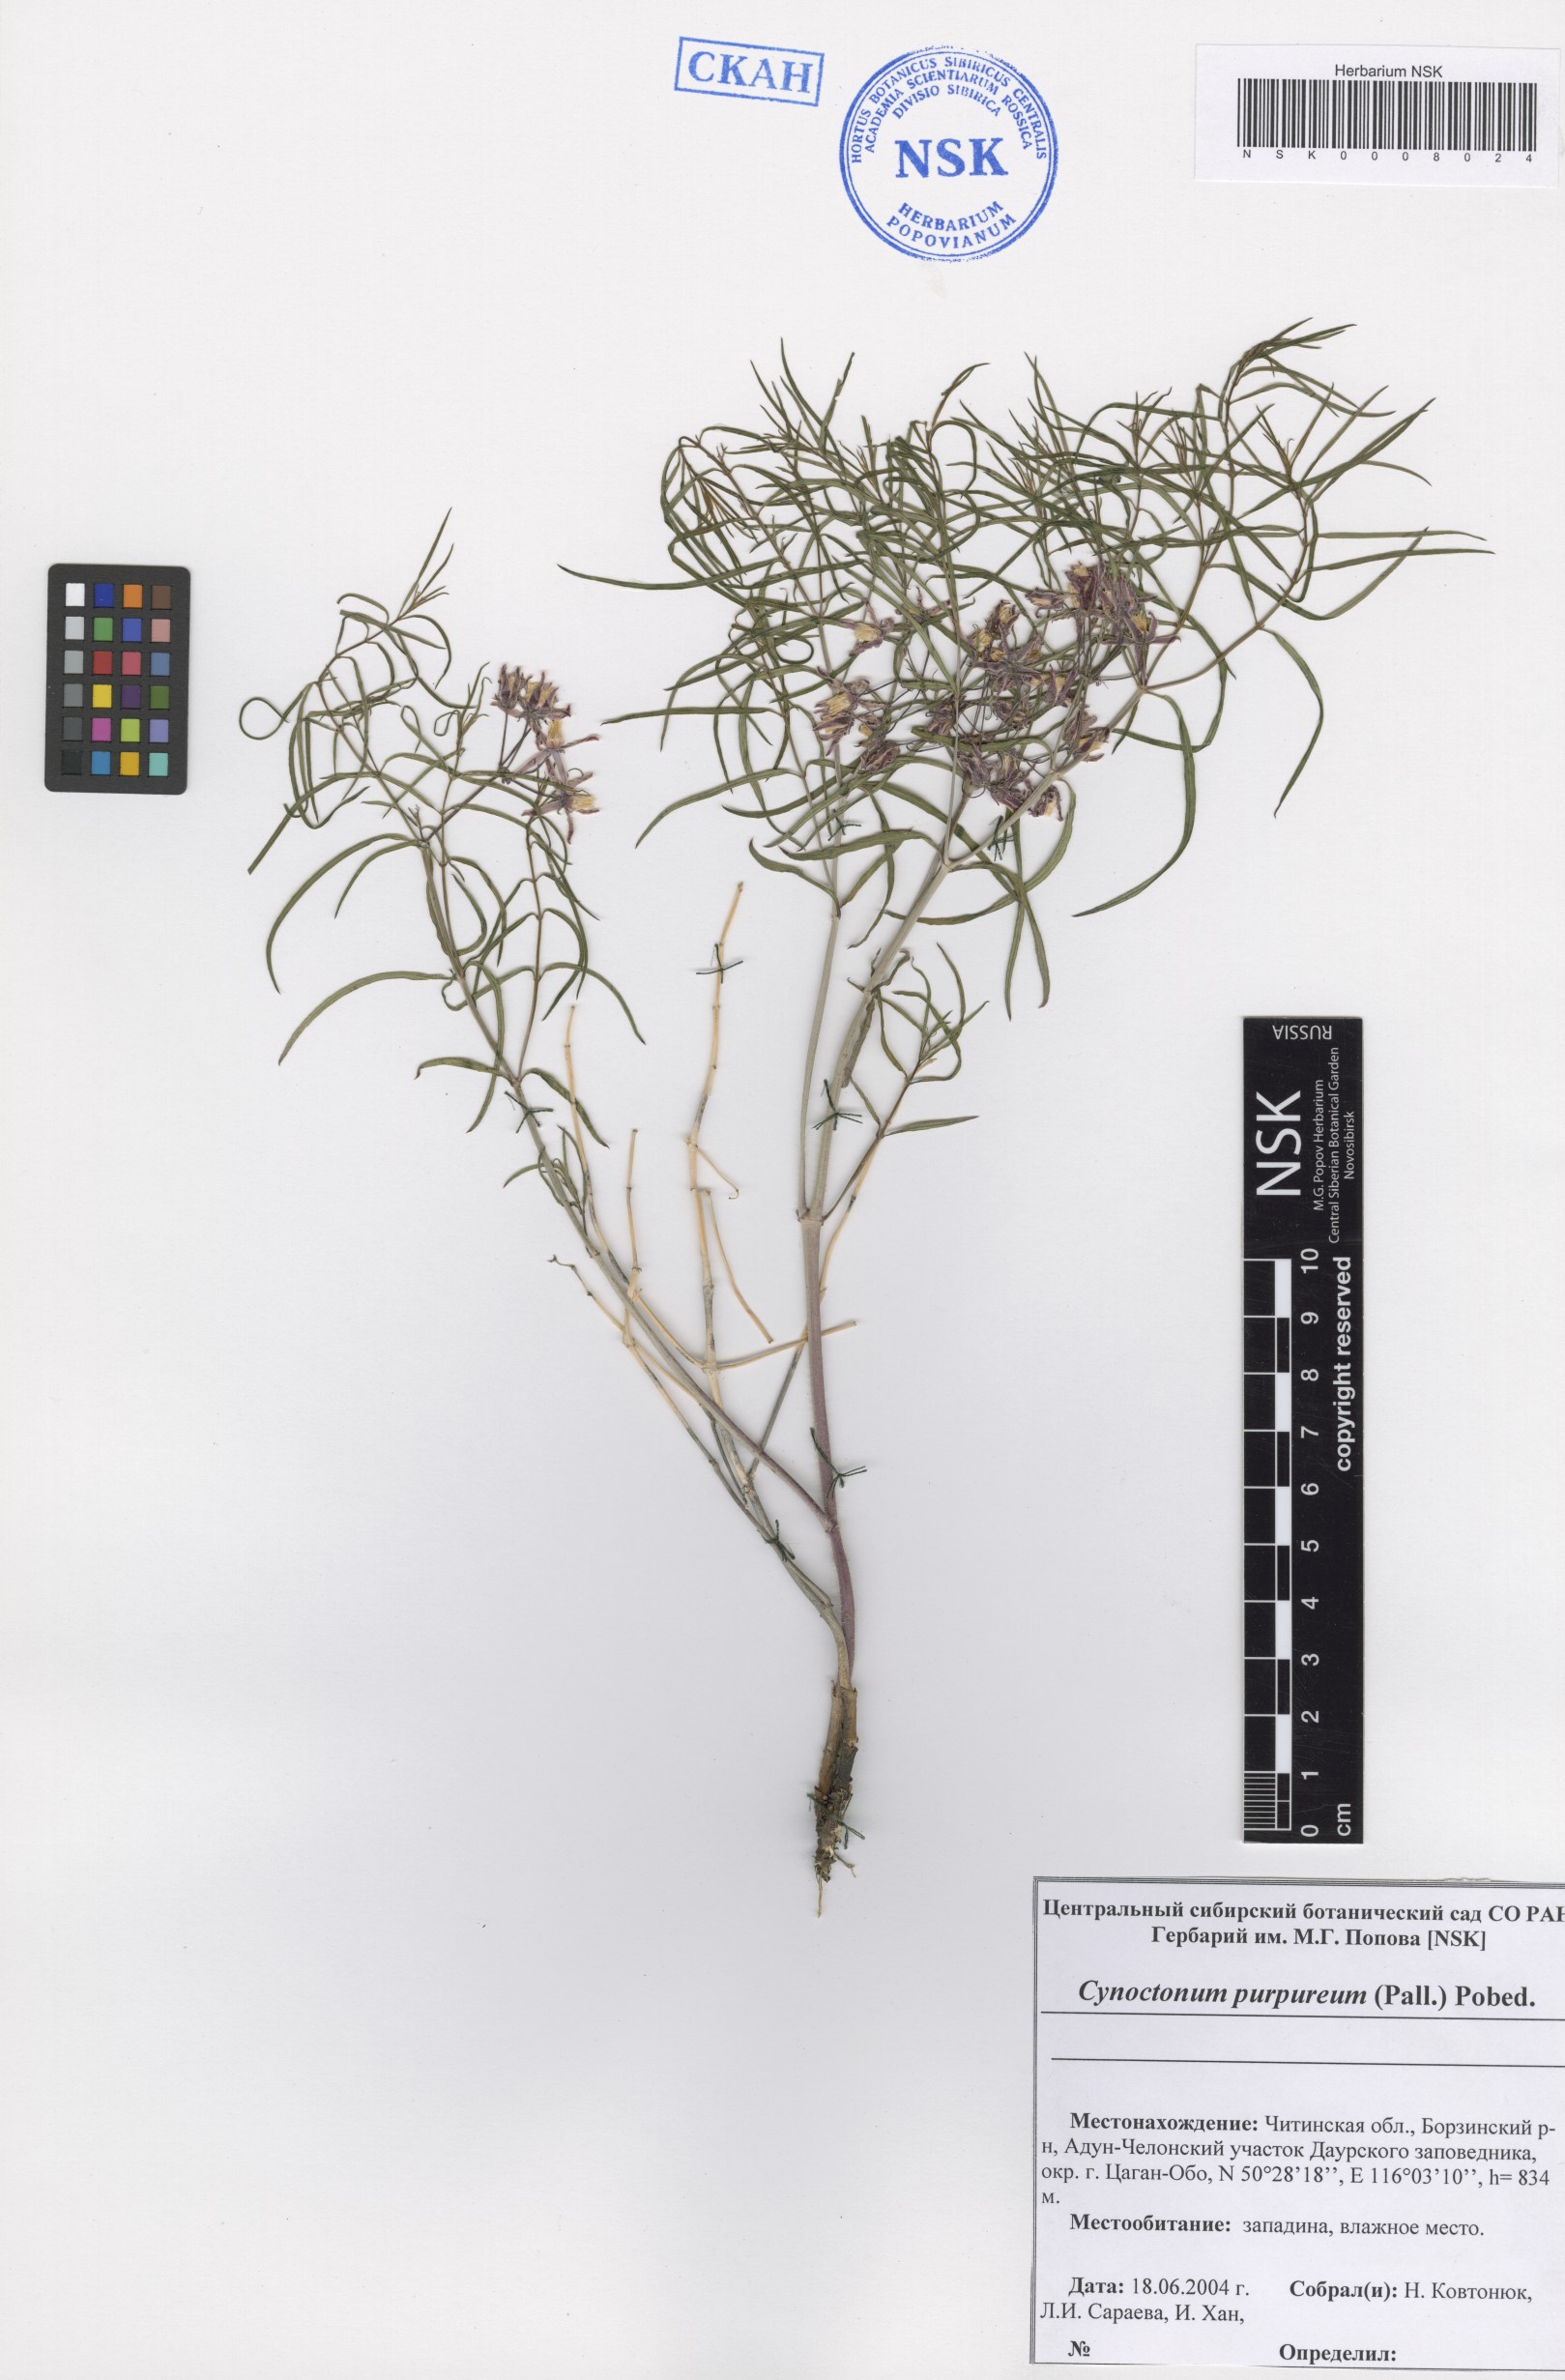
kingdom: Plantae
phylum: Tracheophyta
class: Magnoliopsida
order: Gentianales
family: Apocynaceae
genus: Vincetoxicum
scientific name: Vincetoxicum purpureum
